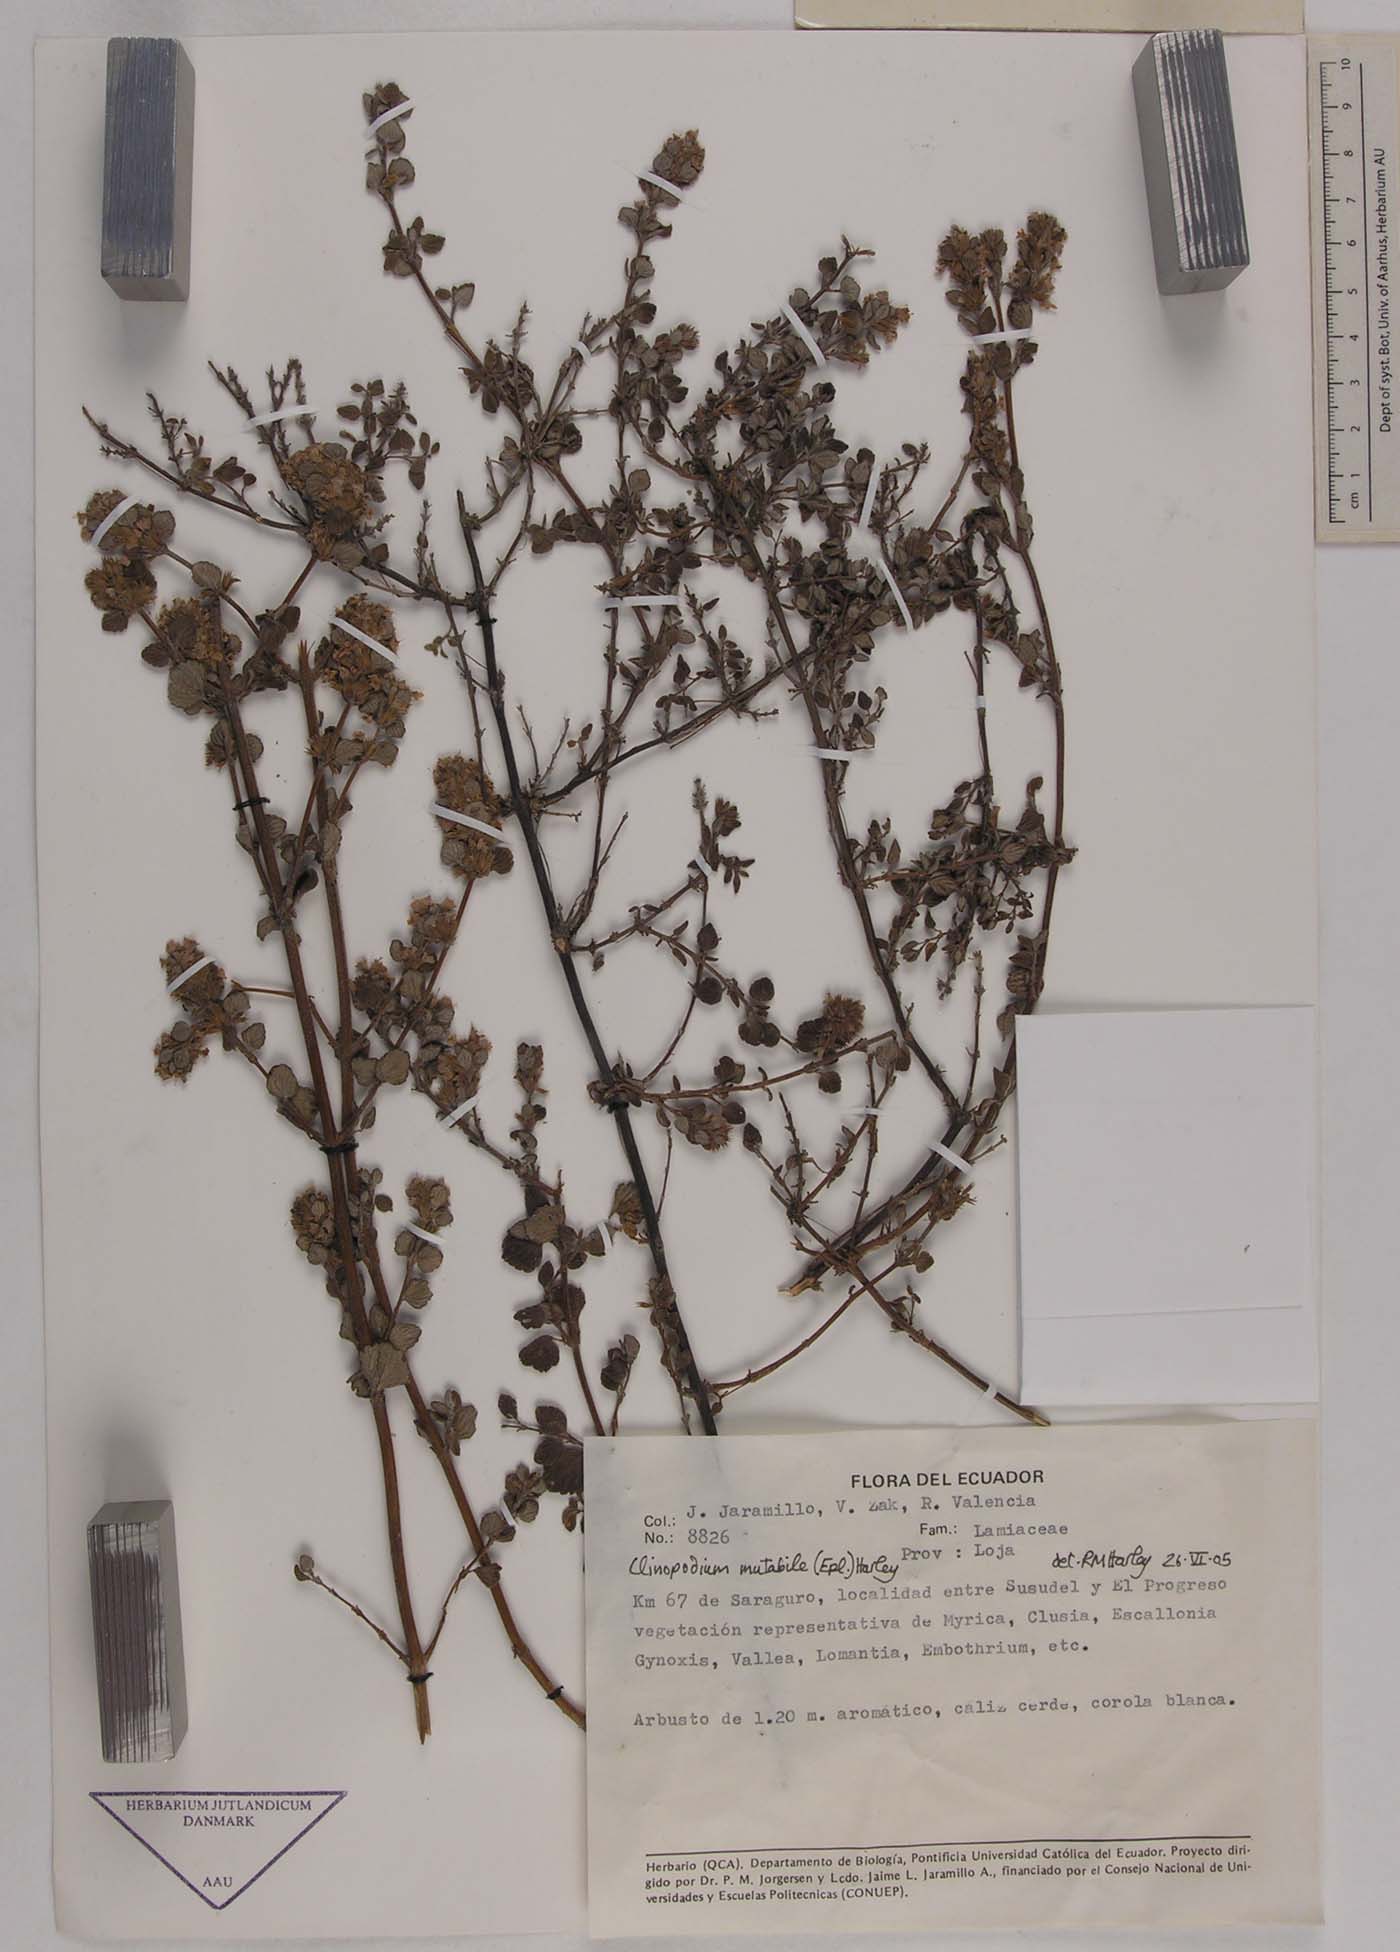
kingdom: Plantae
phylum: Tracheophyta
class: Magnoliopsida
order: Lamiales
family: Lamiaceae
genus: Clinopodium
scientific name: Clinopodium mutabile
